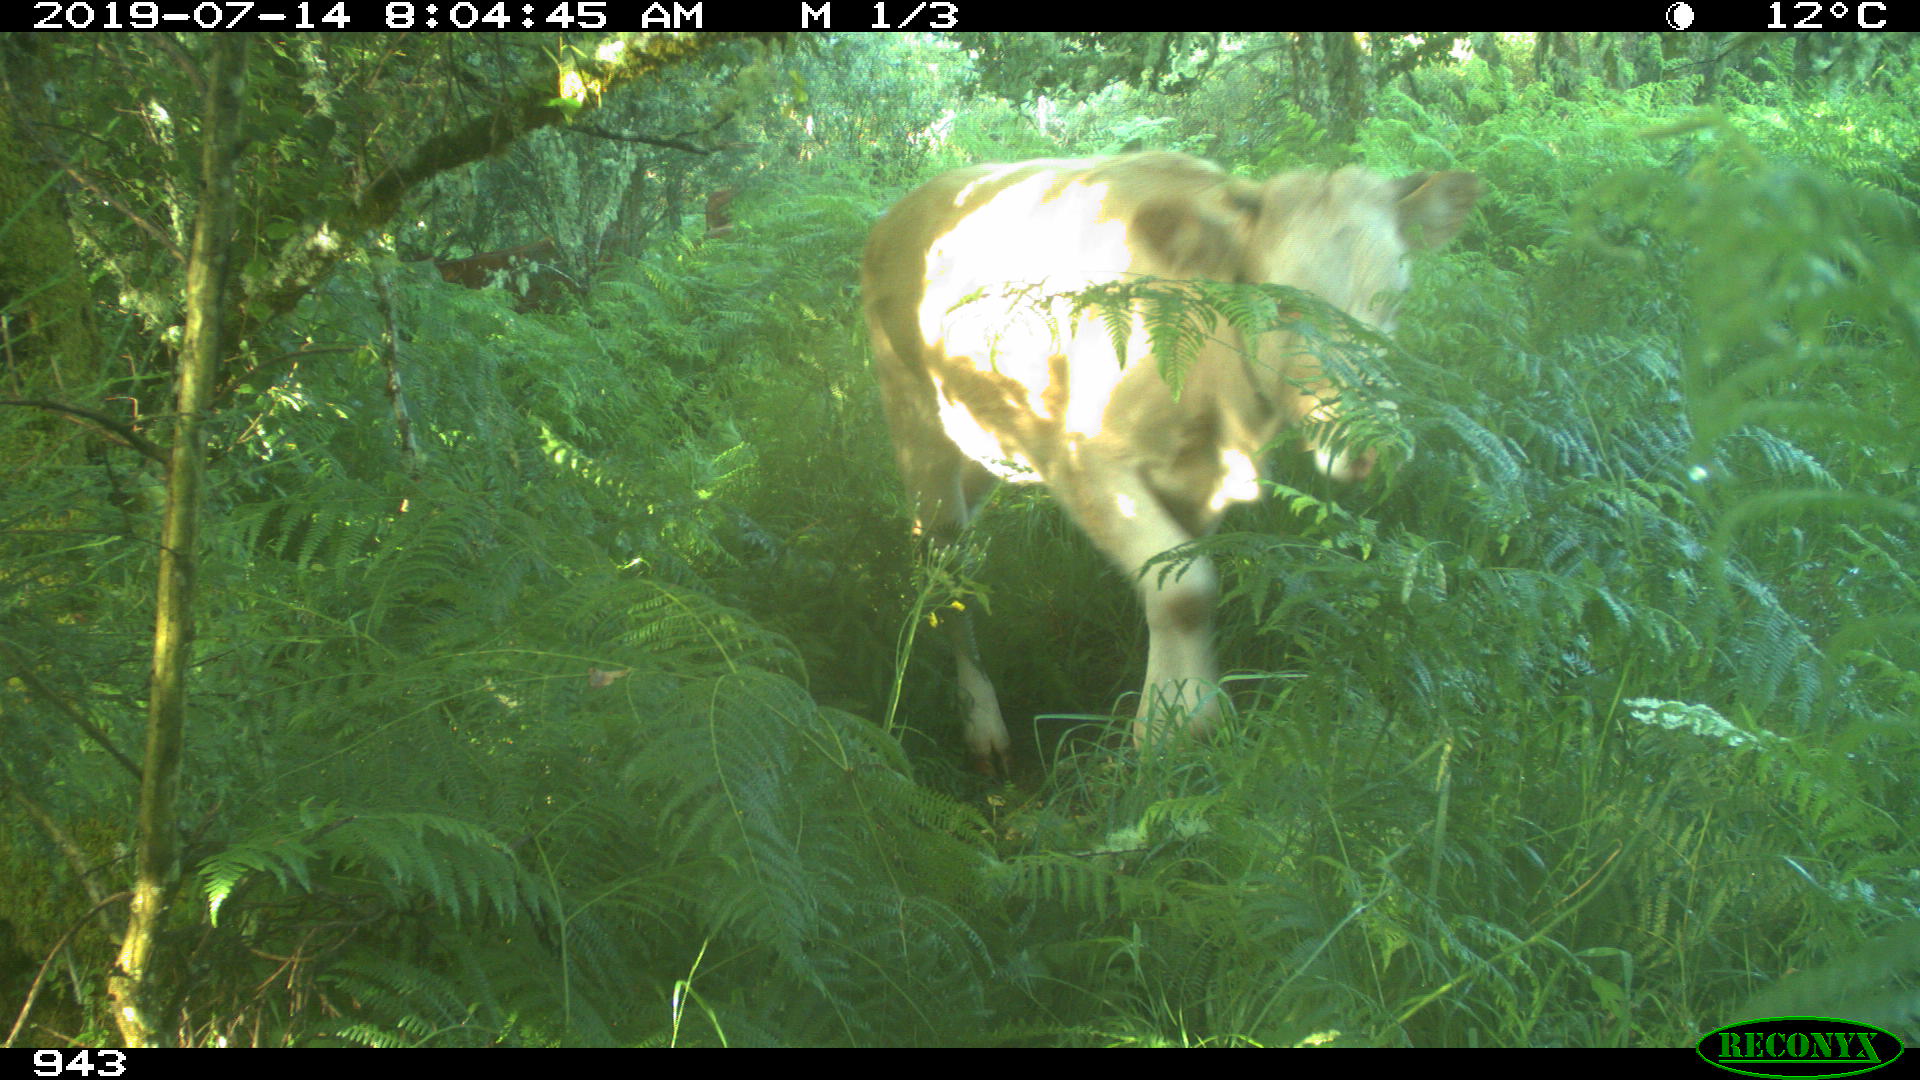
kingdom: Animalia
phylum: Chordata
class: Mammalia
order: Artiodactyla
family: Bovidae
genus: Bos
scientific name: Bos taurus
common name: Domesticated cattle
